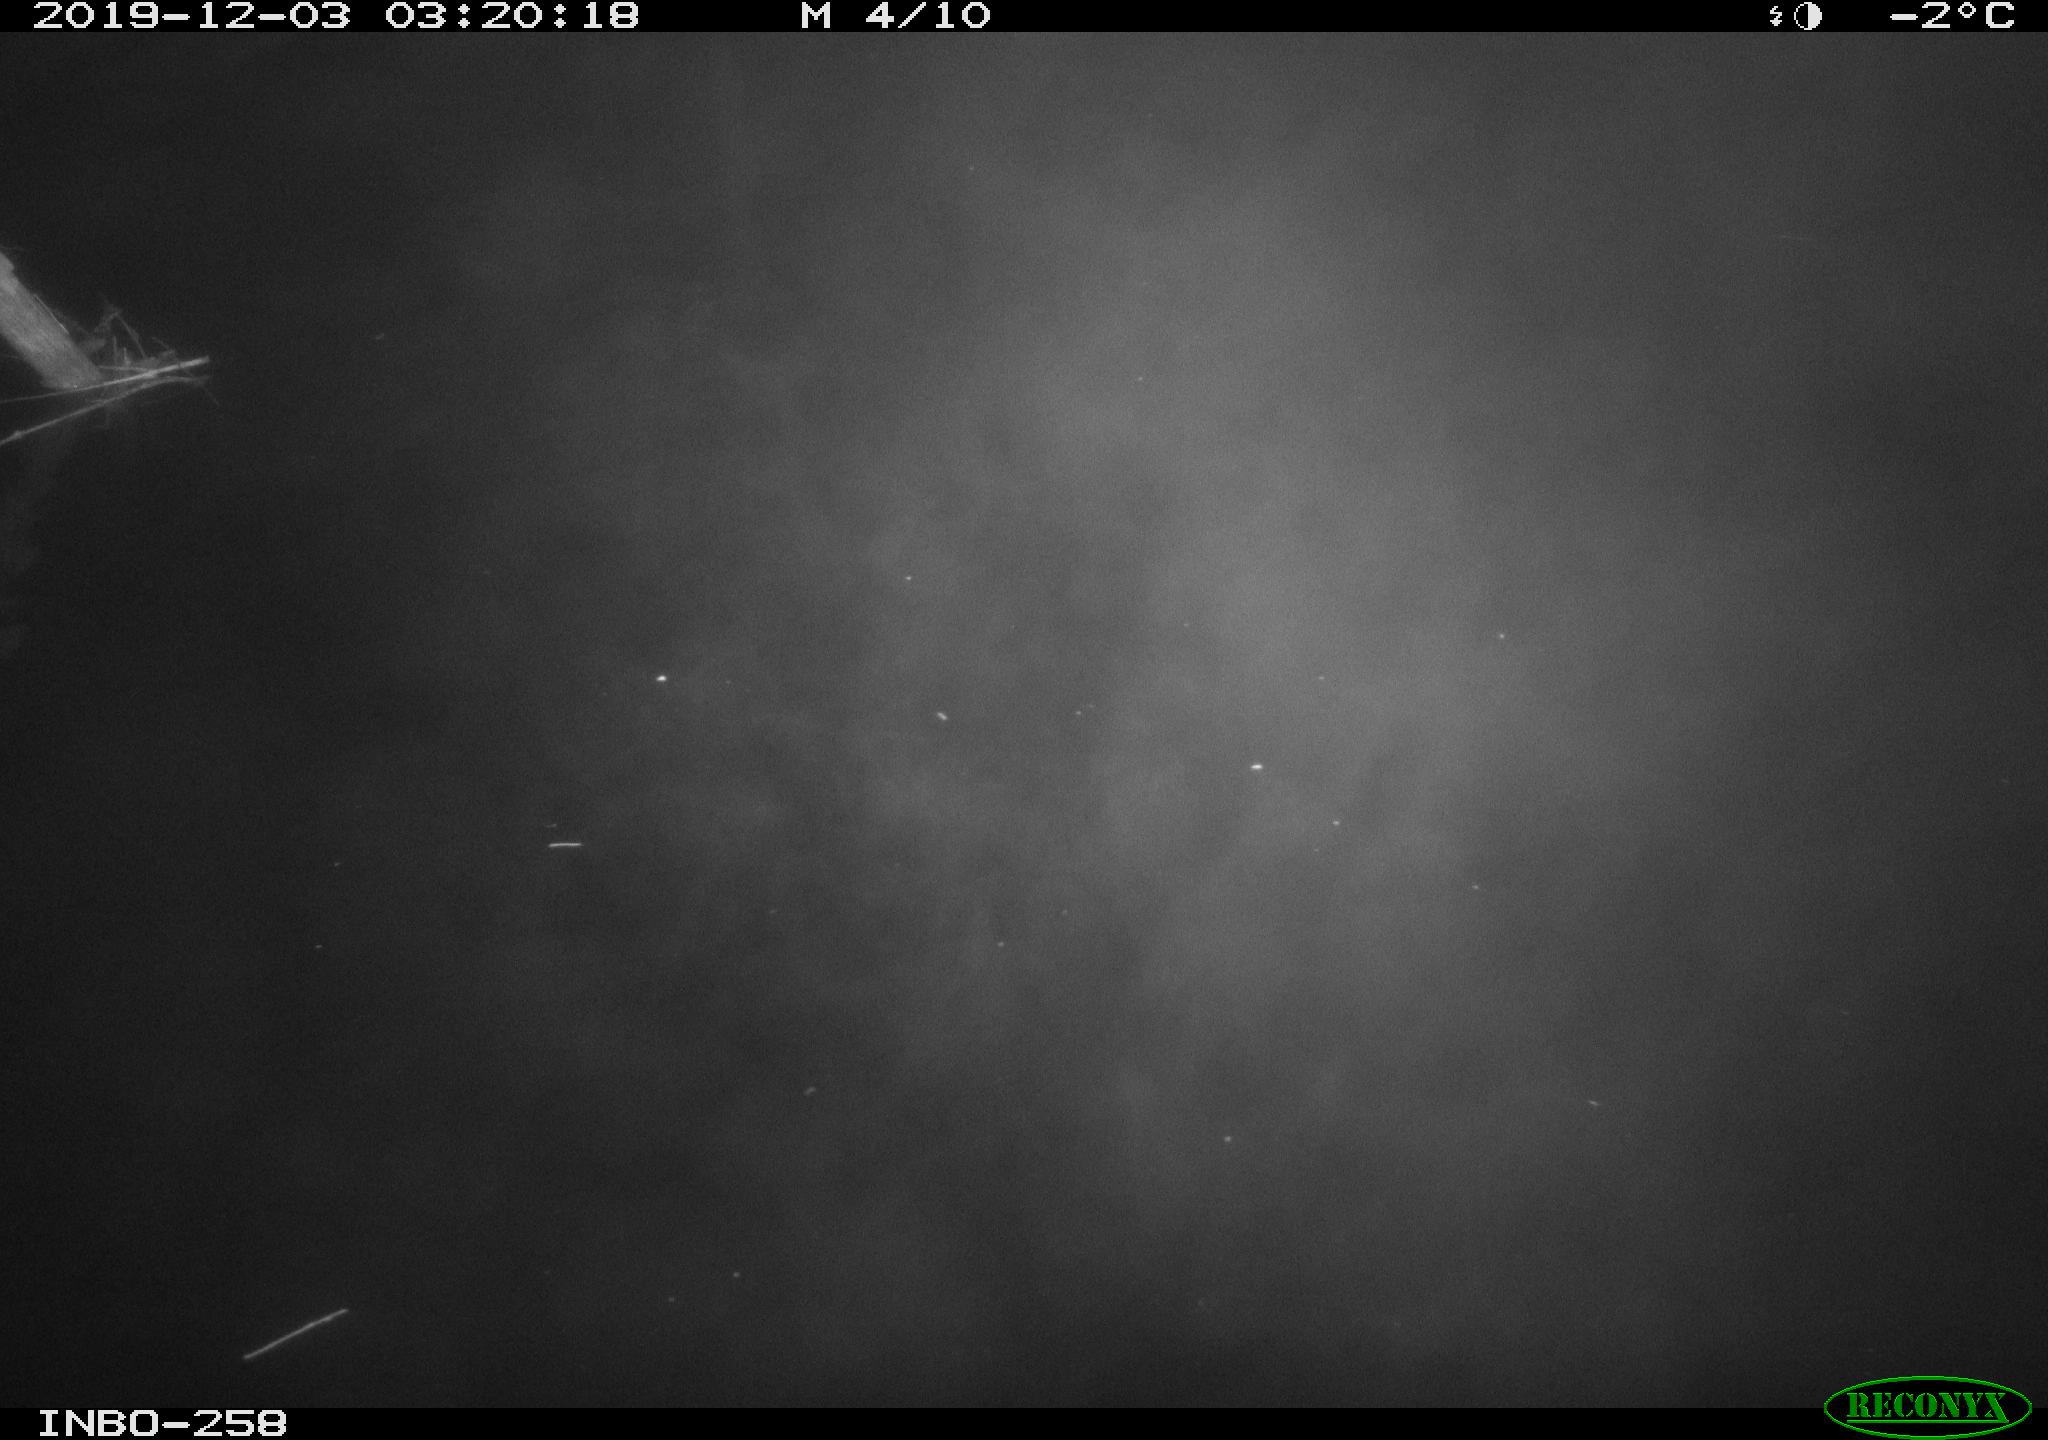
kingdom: Animalia
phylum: Chordata
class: Aves
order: Anseriformes
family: Anatidae
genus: Anas
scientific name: Anas platyrhynchos
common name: Mallard
